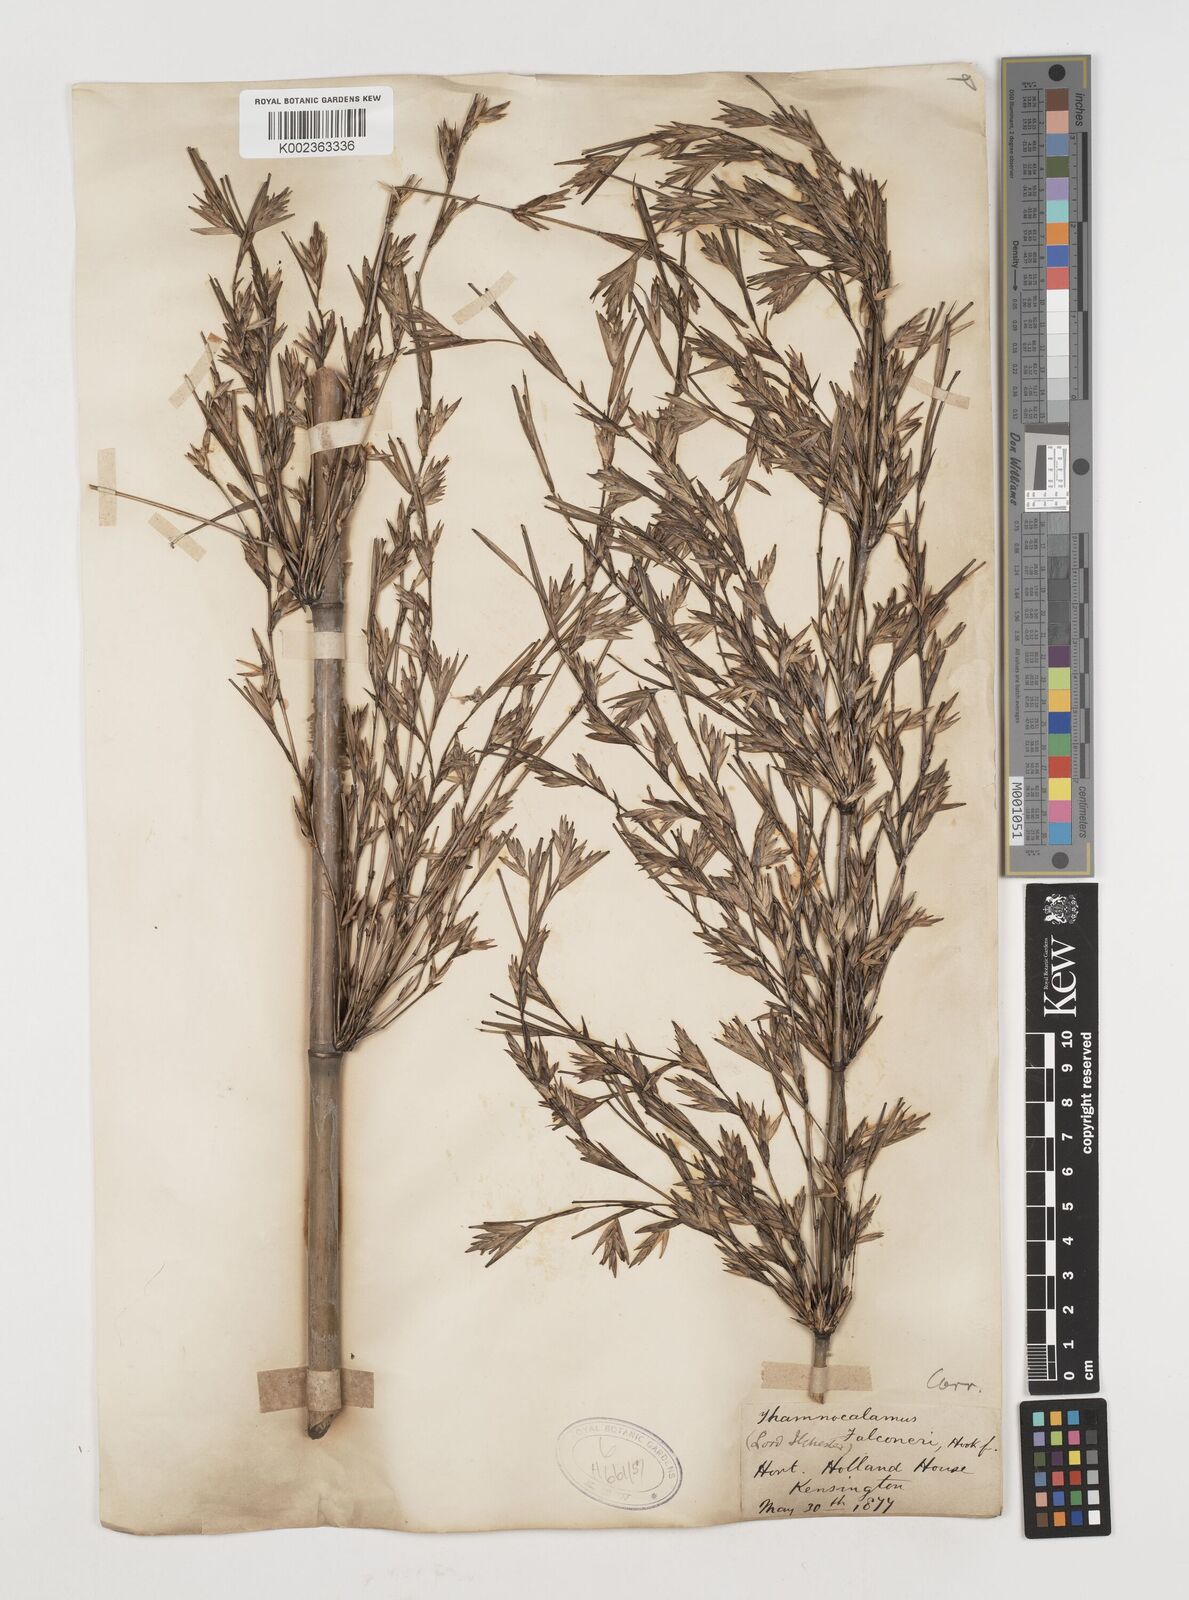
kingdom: Plantae
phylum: Tracheophyta
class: Liliopsida
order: Poales
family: Poaceae
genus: Himalayacalamus
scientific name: Himalayacalamus falconeri
